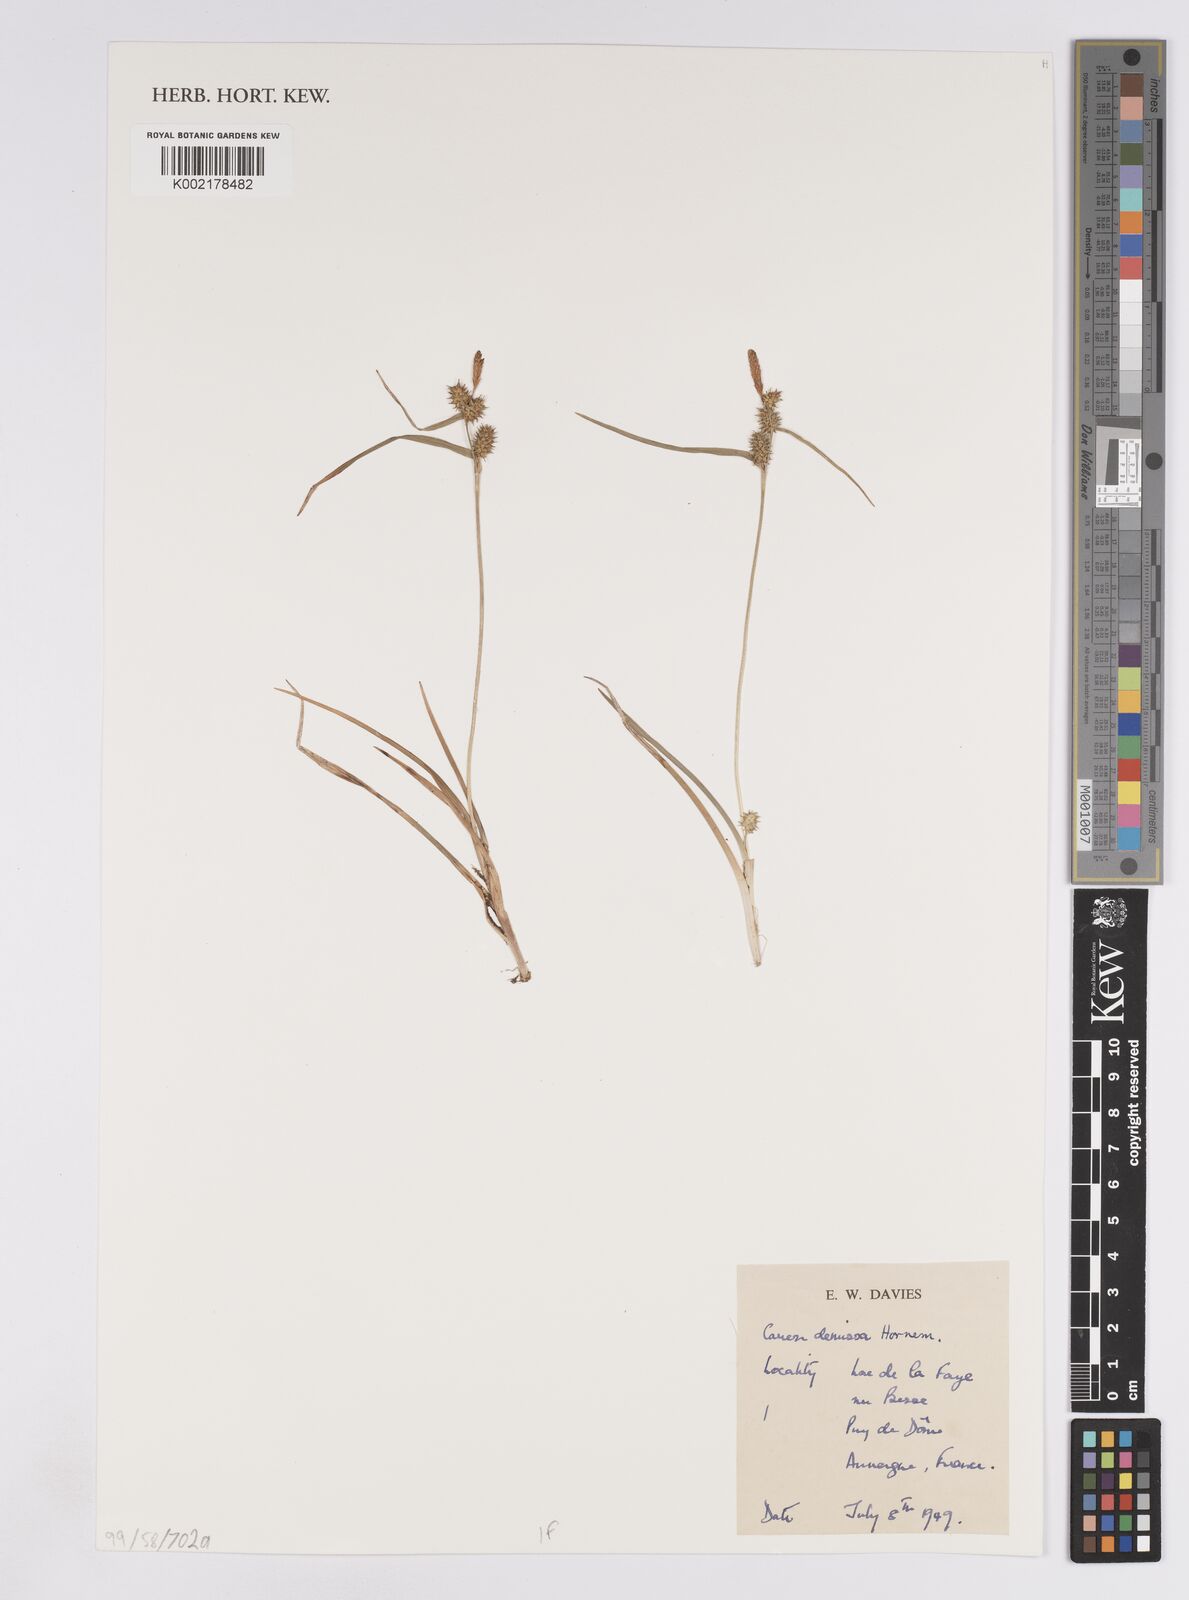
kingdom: Plantae
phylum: Tracheophyta
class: Liliopsida
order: Poales
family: Cyperaceae
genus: Carex
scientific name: Carex demissa
